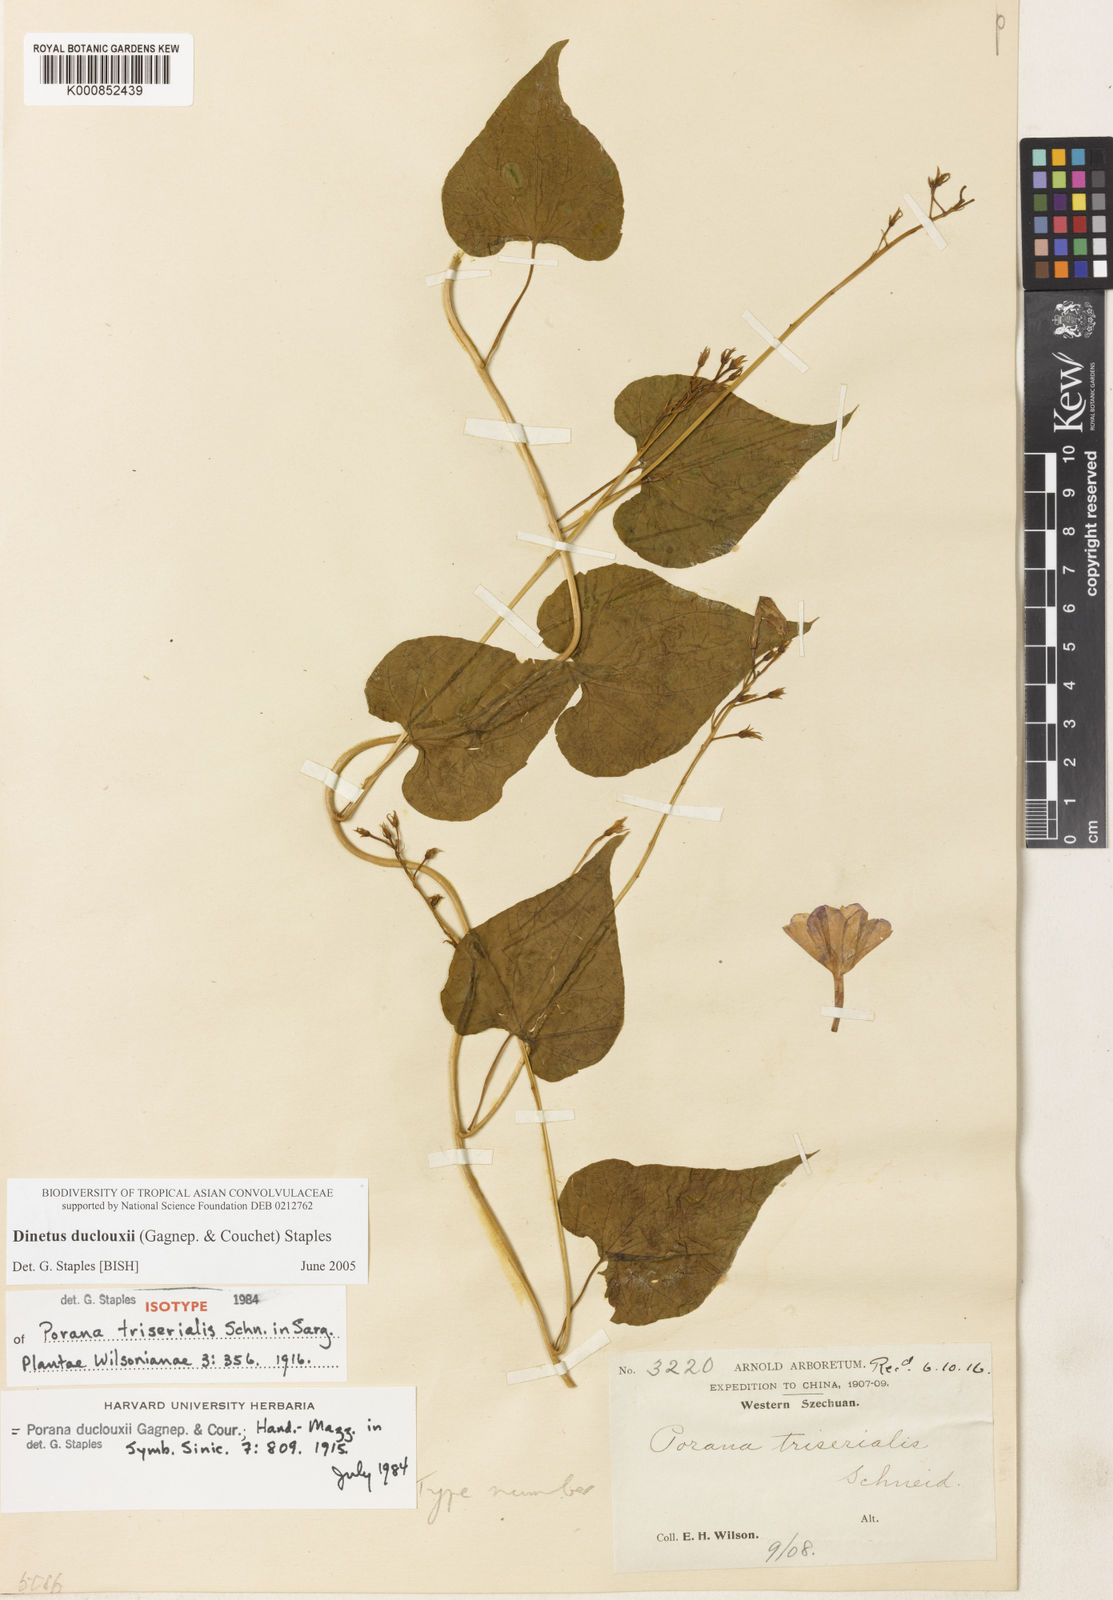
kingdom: Plantae
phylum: Tracheophyta
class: Magnoliopsida
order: Solanales
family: Convolvulaceae
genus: Dinetus
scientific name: Dinetus duclouxii
